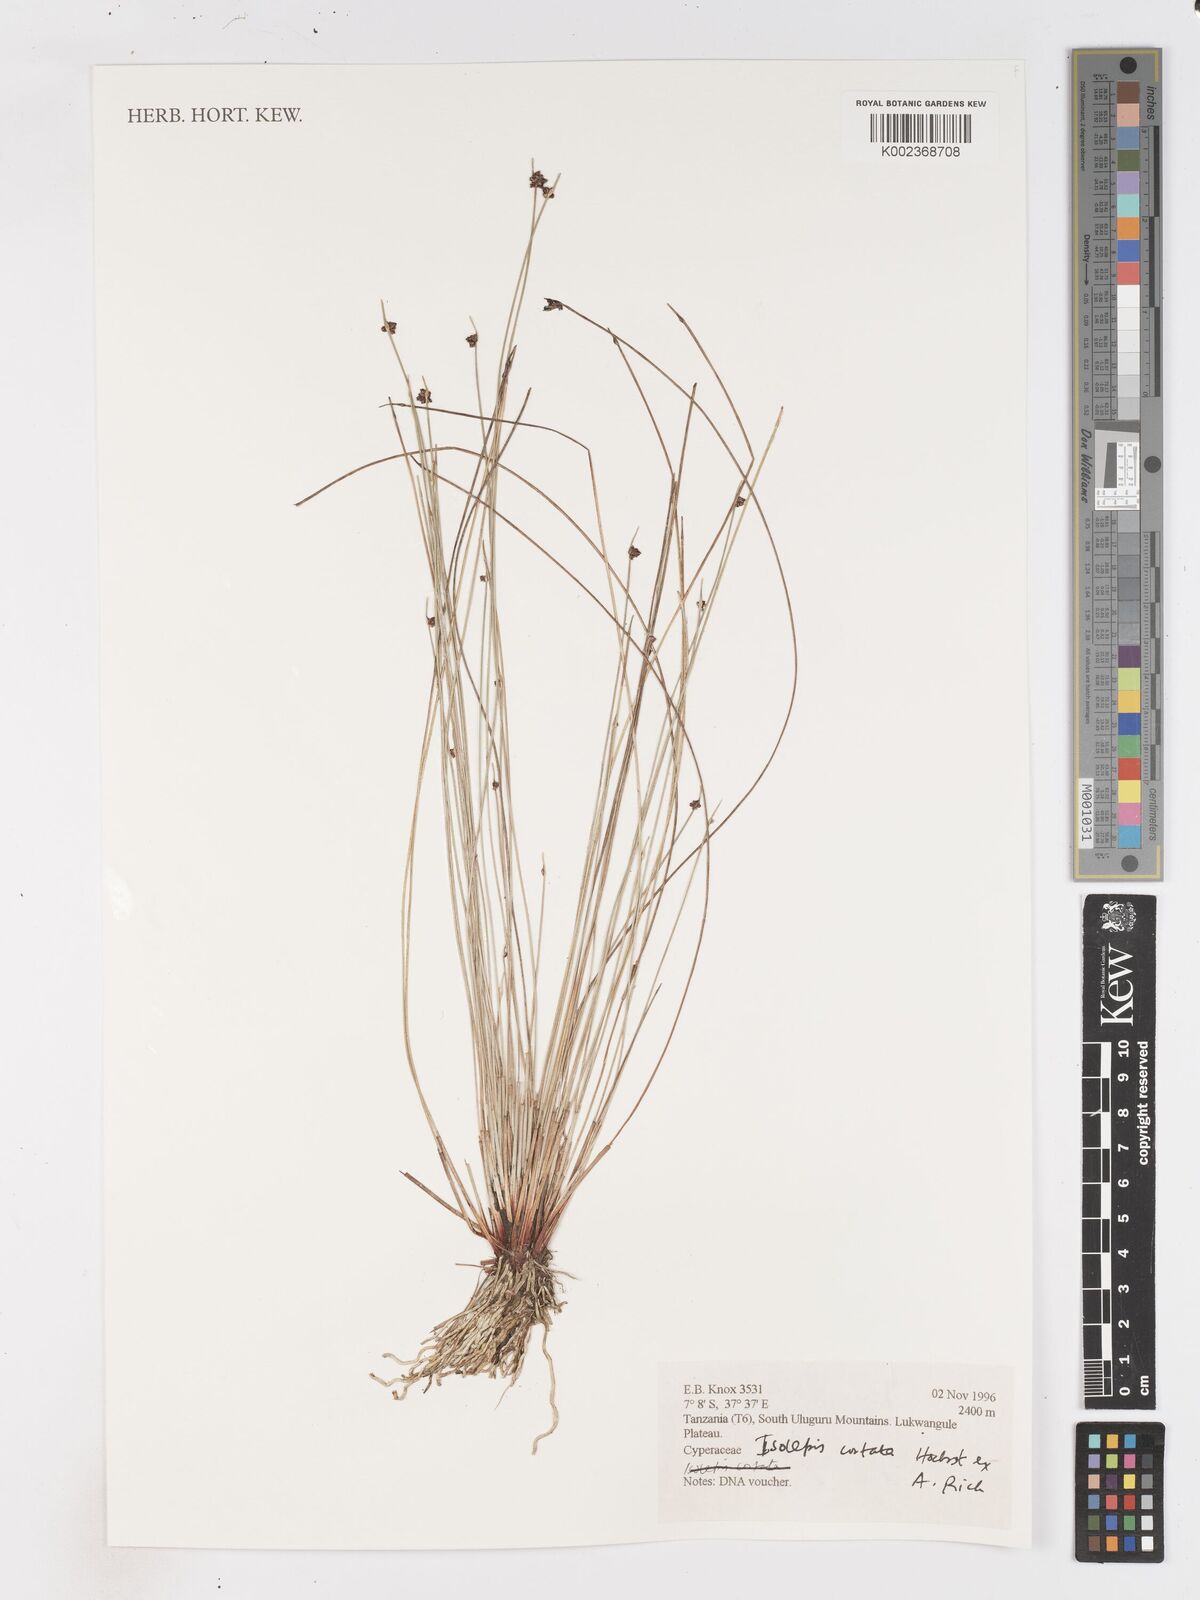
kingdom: Plantae
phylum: Tracheophyta
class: Liliopsida
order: Poales
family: Cyperaceae
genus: Isolepis
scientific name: Isolepis costata
